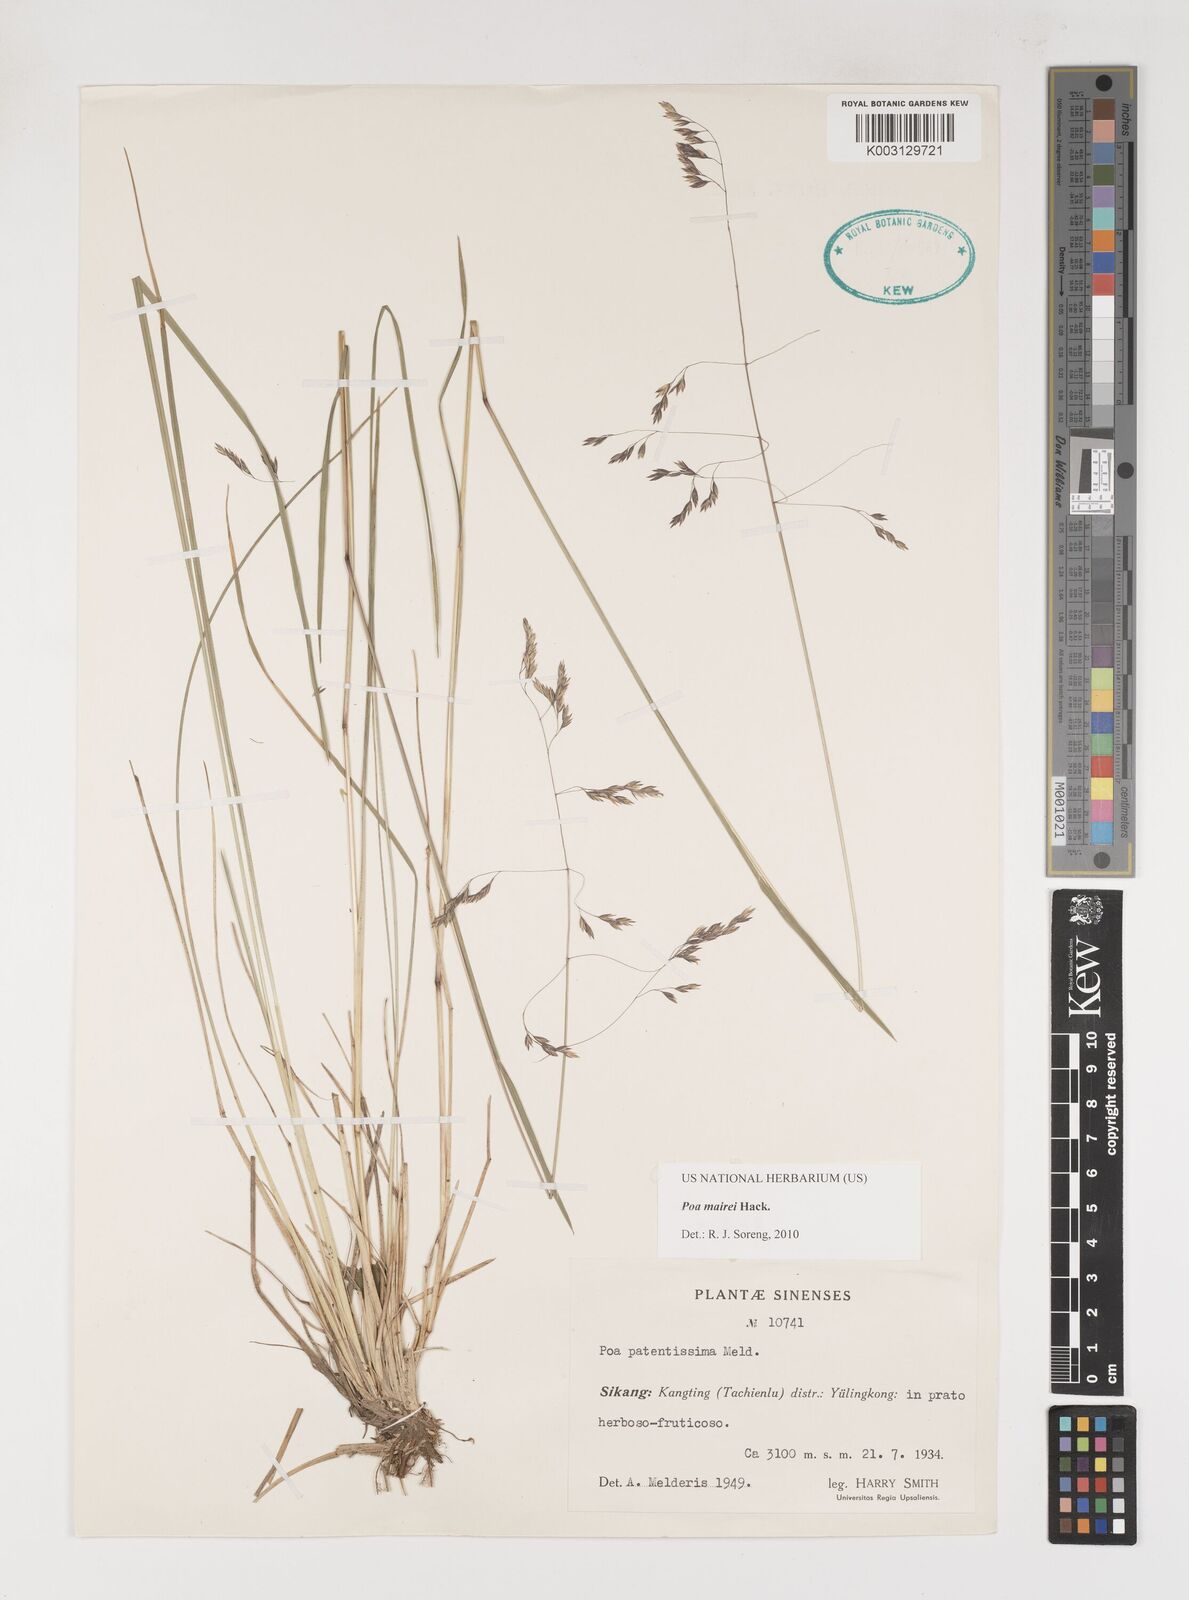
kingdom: Plantae
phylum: Tracheophyta
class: Liliopsida
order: Poales
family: Poaceae
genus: Poa
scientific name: Poa mairei
